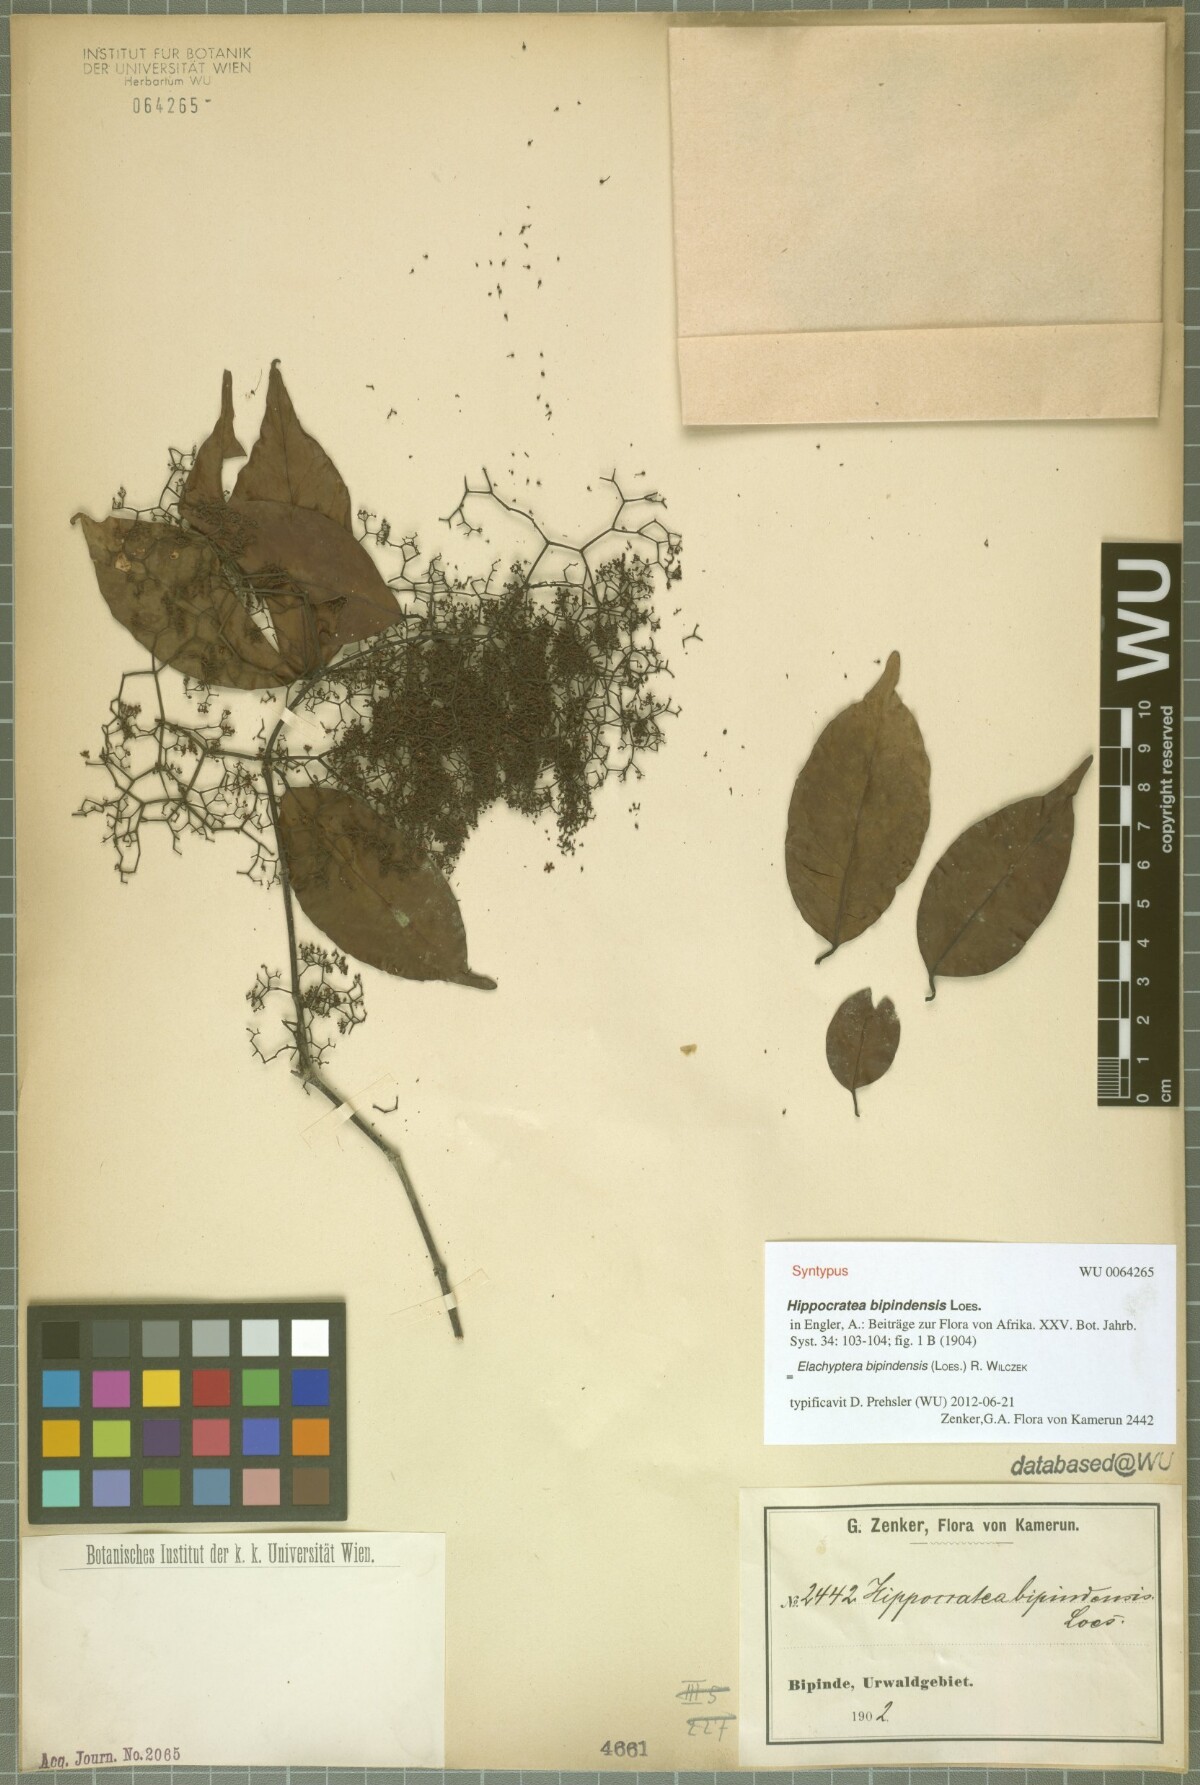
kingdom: Plantae
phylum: Tracheophyta
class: Magnoliopsida
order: Celastrales
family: Celastraceae
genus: Elachyptera
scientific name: Elachyptera bipindensis
